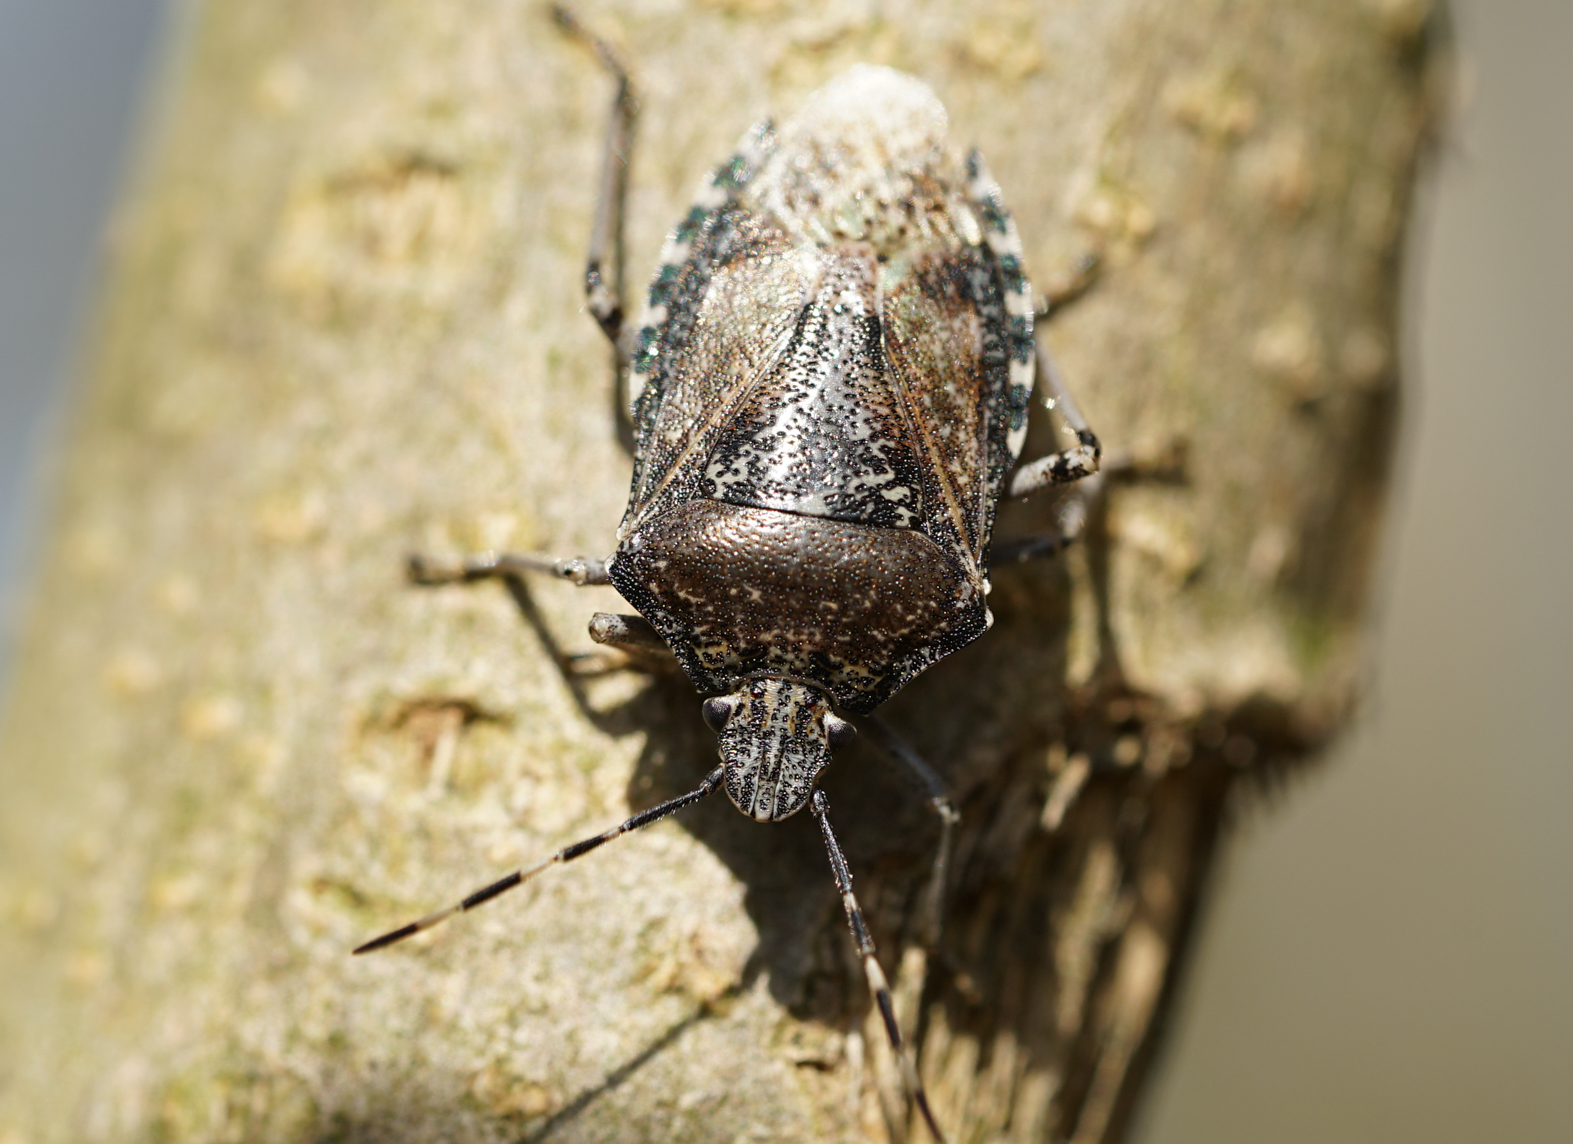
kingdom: Animalia
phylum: Arthropoda
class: Insecta
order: Hemiptera
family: Pentatomidae
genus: Rhaphigaster
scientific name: Rhaphigaster nebulosa
